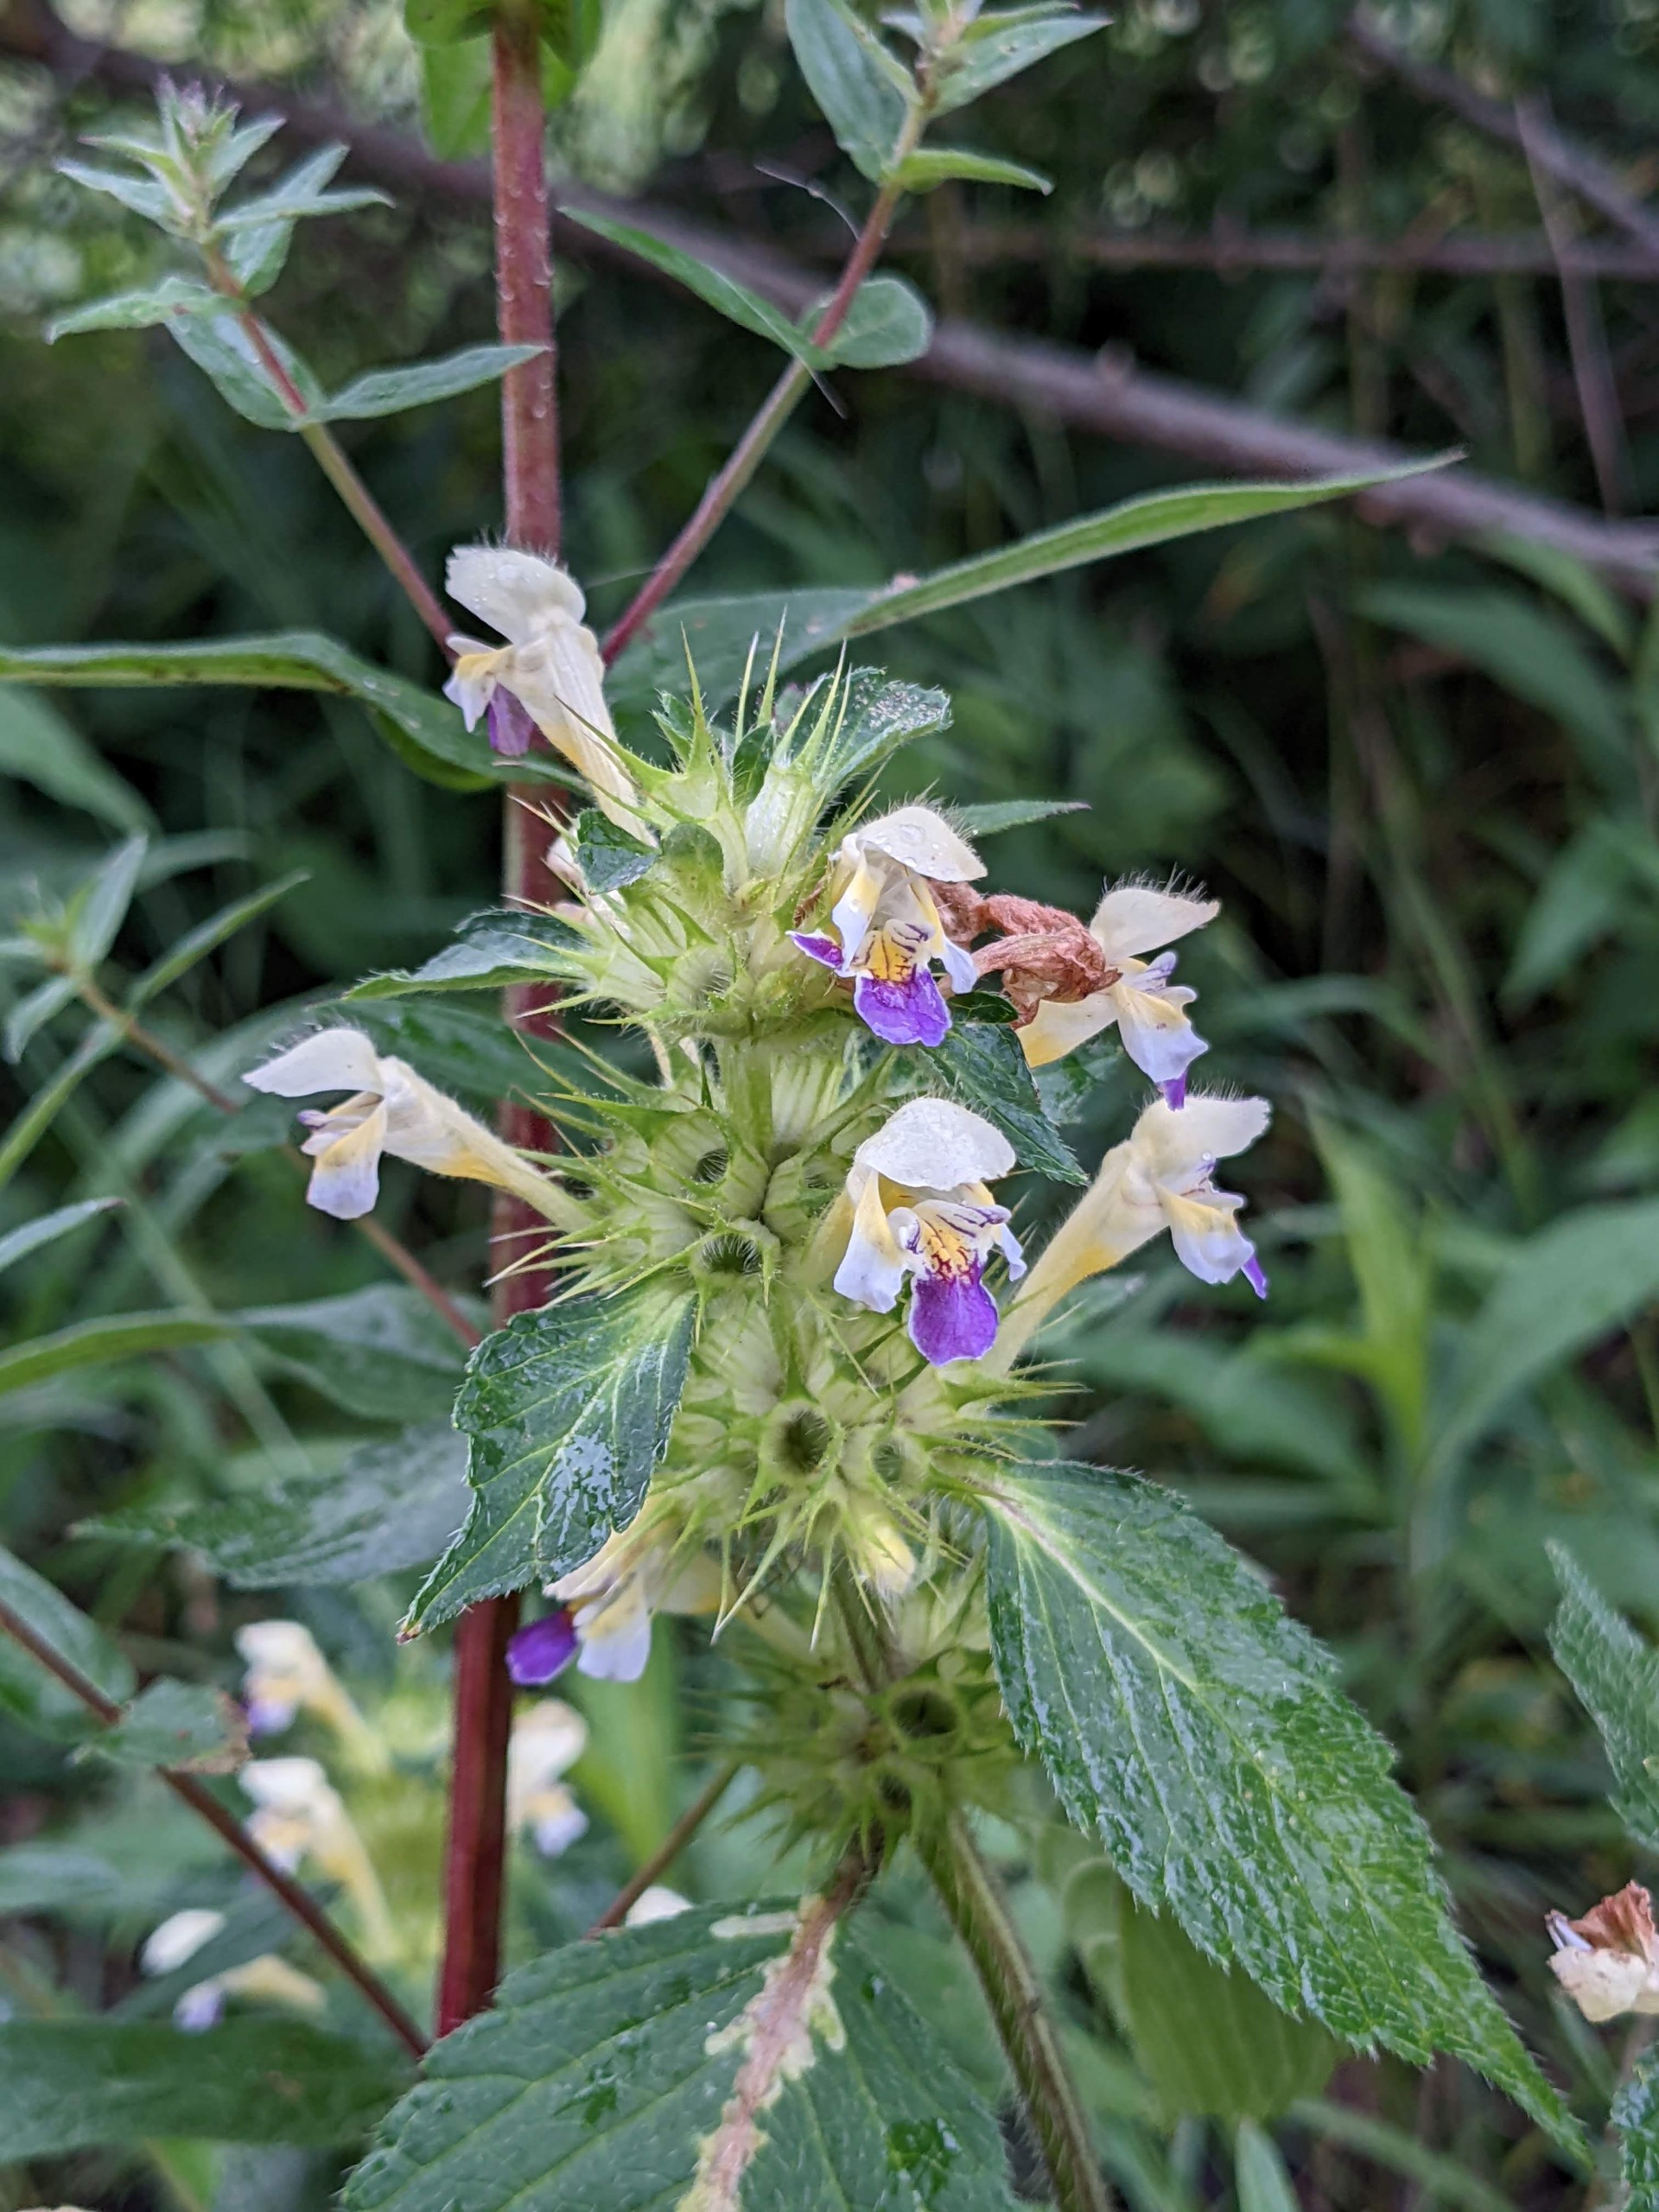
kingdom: Plantae
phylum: Tracheophyta
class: Magnoliopsida
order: Lamiales
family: Lamiaceae
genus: Galeopsis
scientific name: Galeopsis speciosa
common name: Hamp-hanekro
